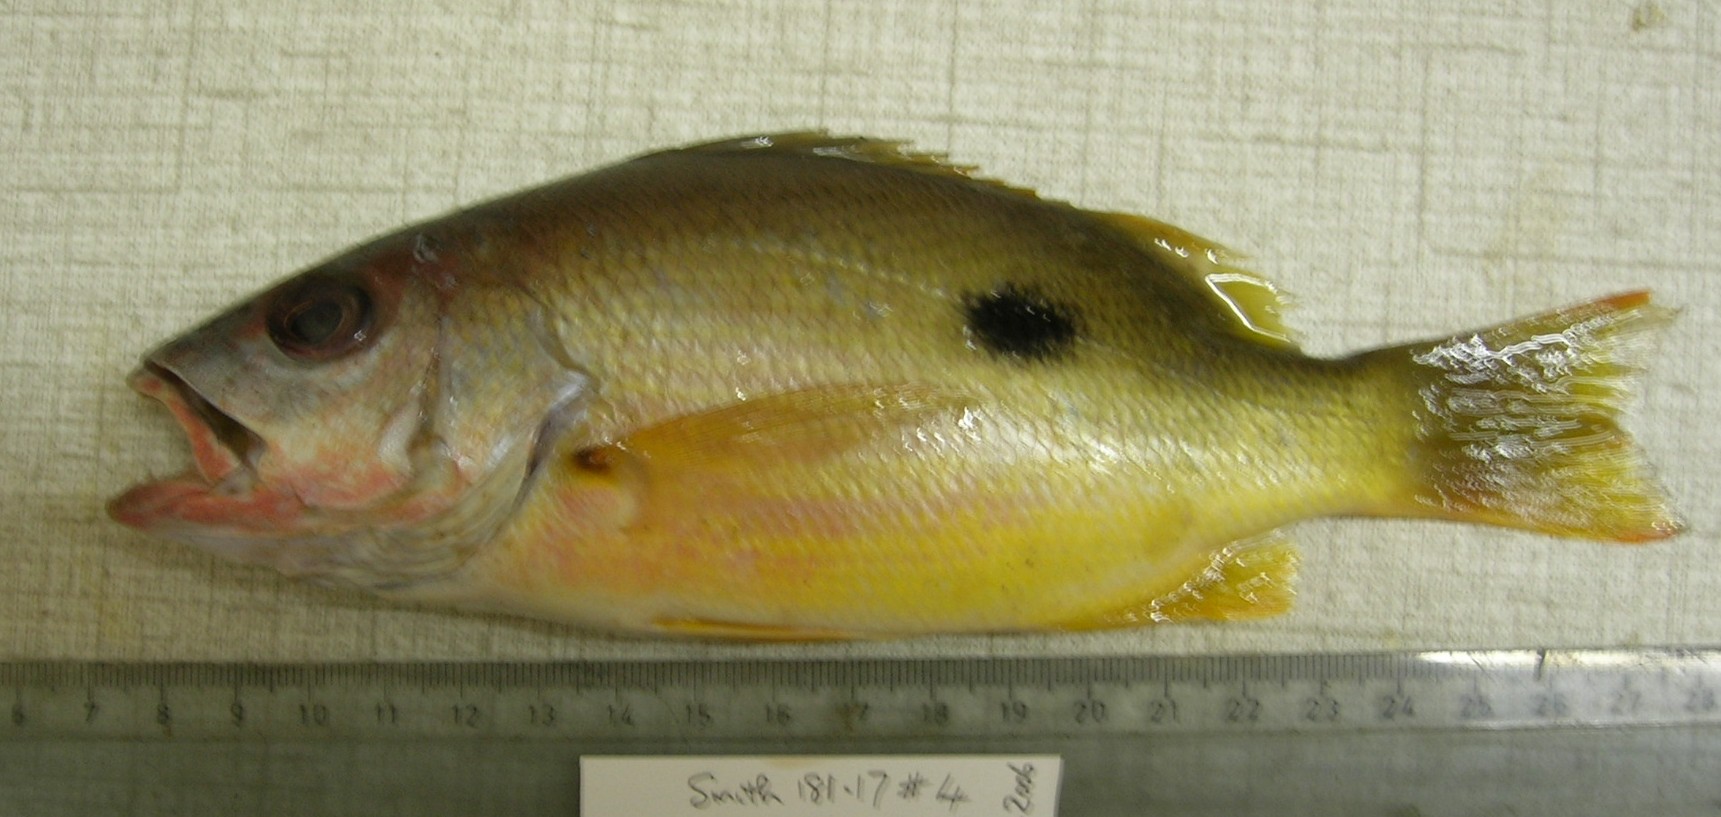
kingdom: Animalia
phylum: Chordata
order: Perciformes
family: Lutjanidae
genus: Lutjanus
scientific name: Lutjanus russellii
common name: Russell's snapper
